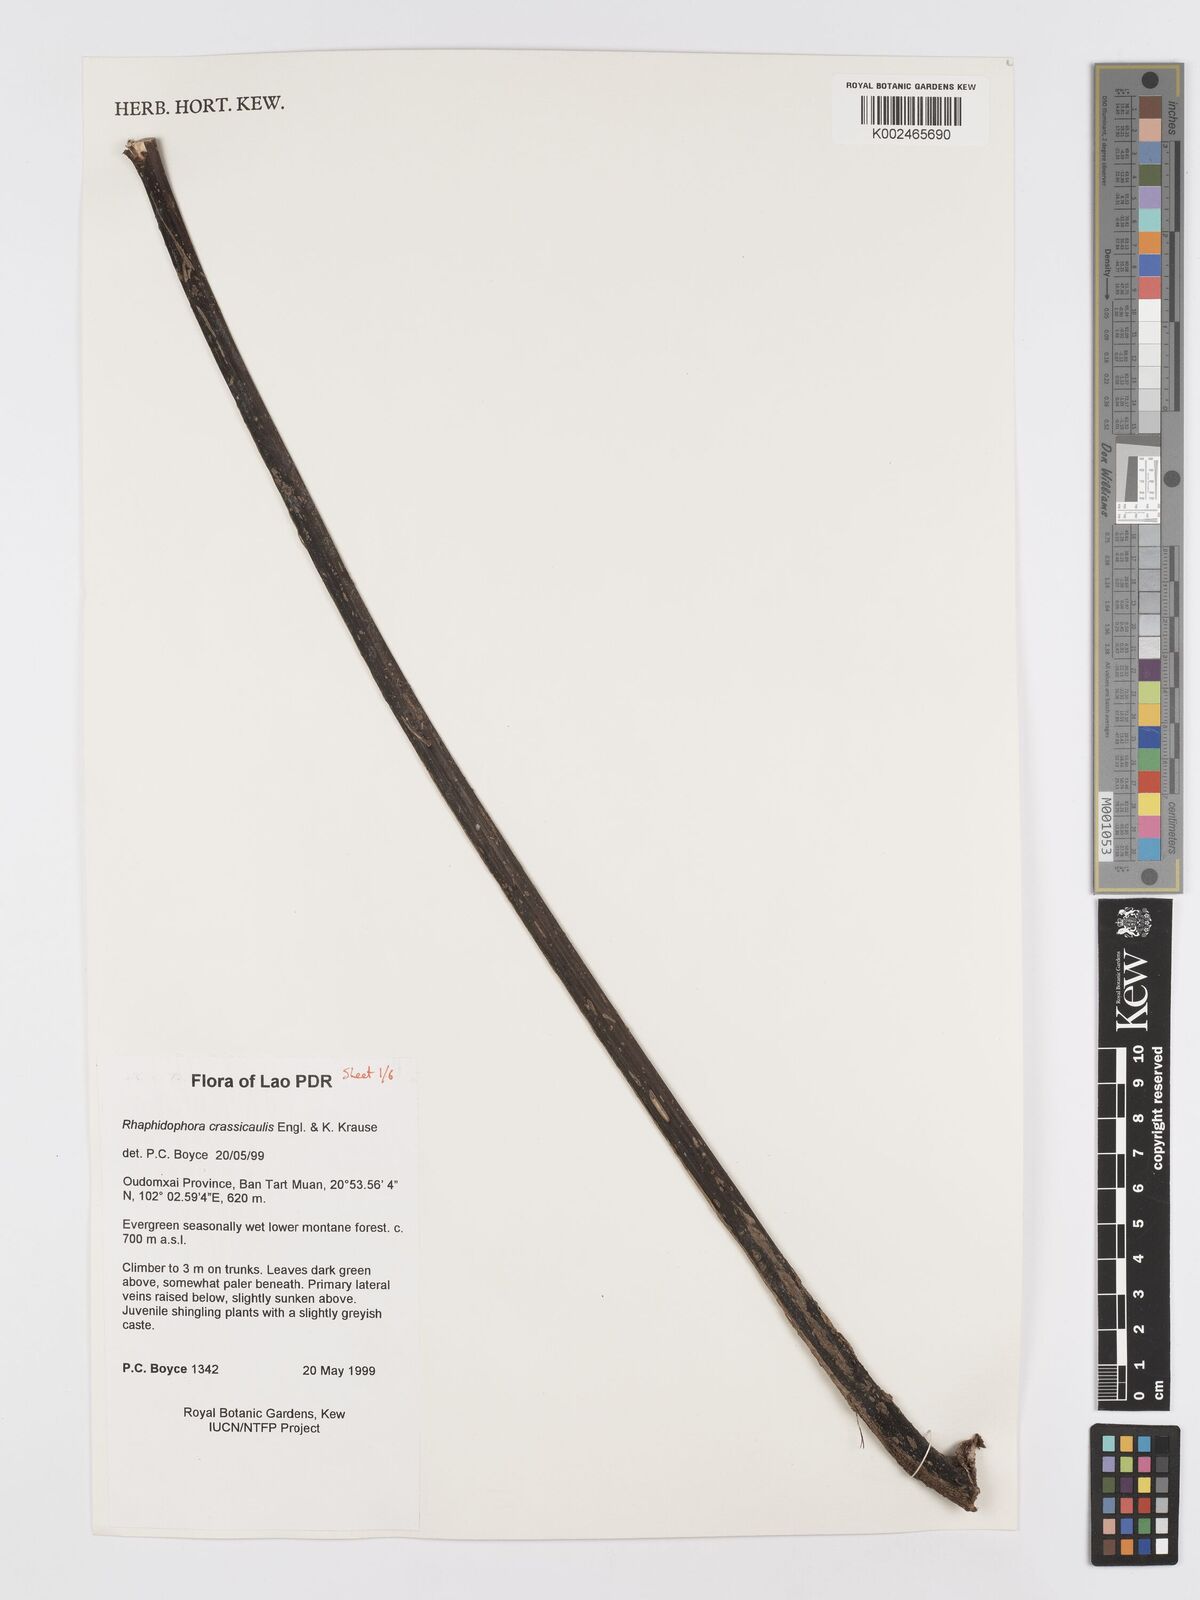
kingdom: Plantae
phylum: Tracheophyta
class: Liliopsida
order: Alismatales
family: Araceae
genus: Rhaphidophora
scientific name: Rhaphidophora crassicaulis
